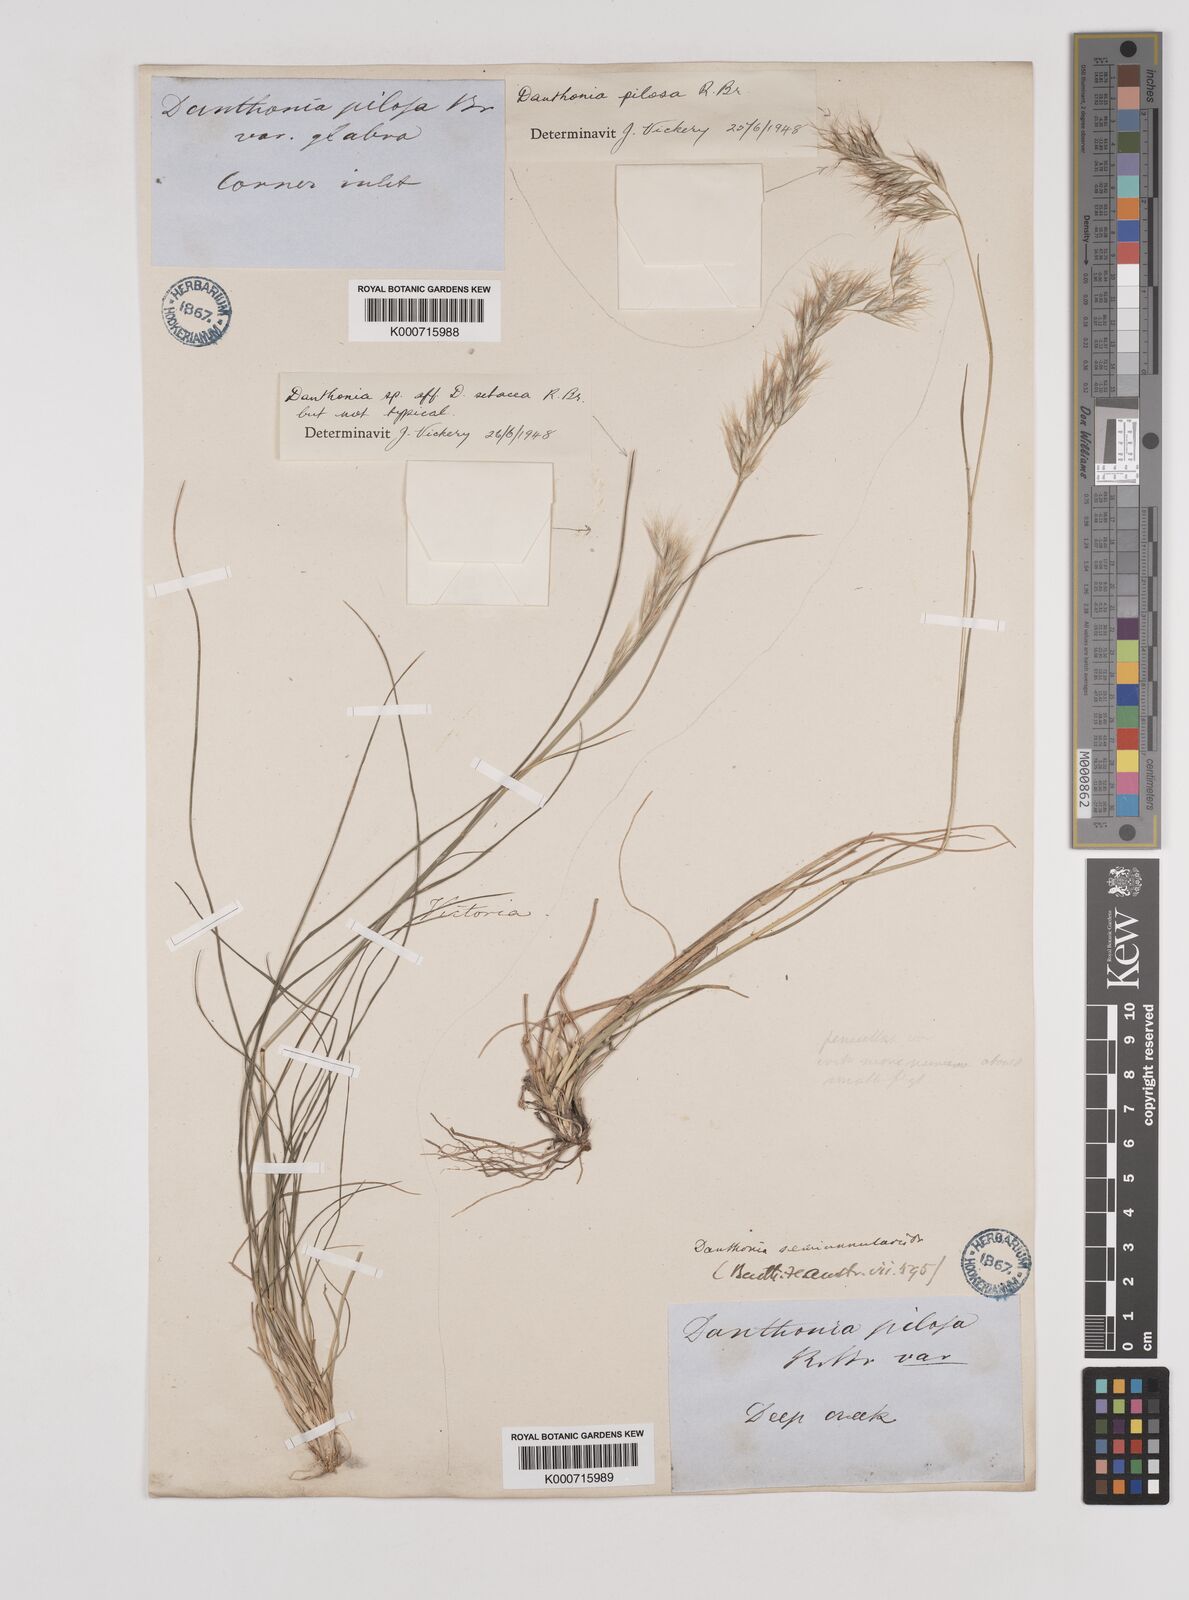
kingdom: Plantae
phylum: Tracheophyta
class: Liliopsida
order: Poales
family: Poaceae
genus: Rytidosperma
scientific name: Rytidosperma pilosum
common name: Hairy wallaby grass
